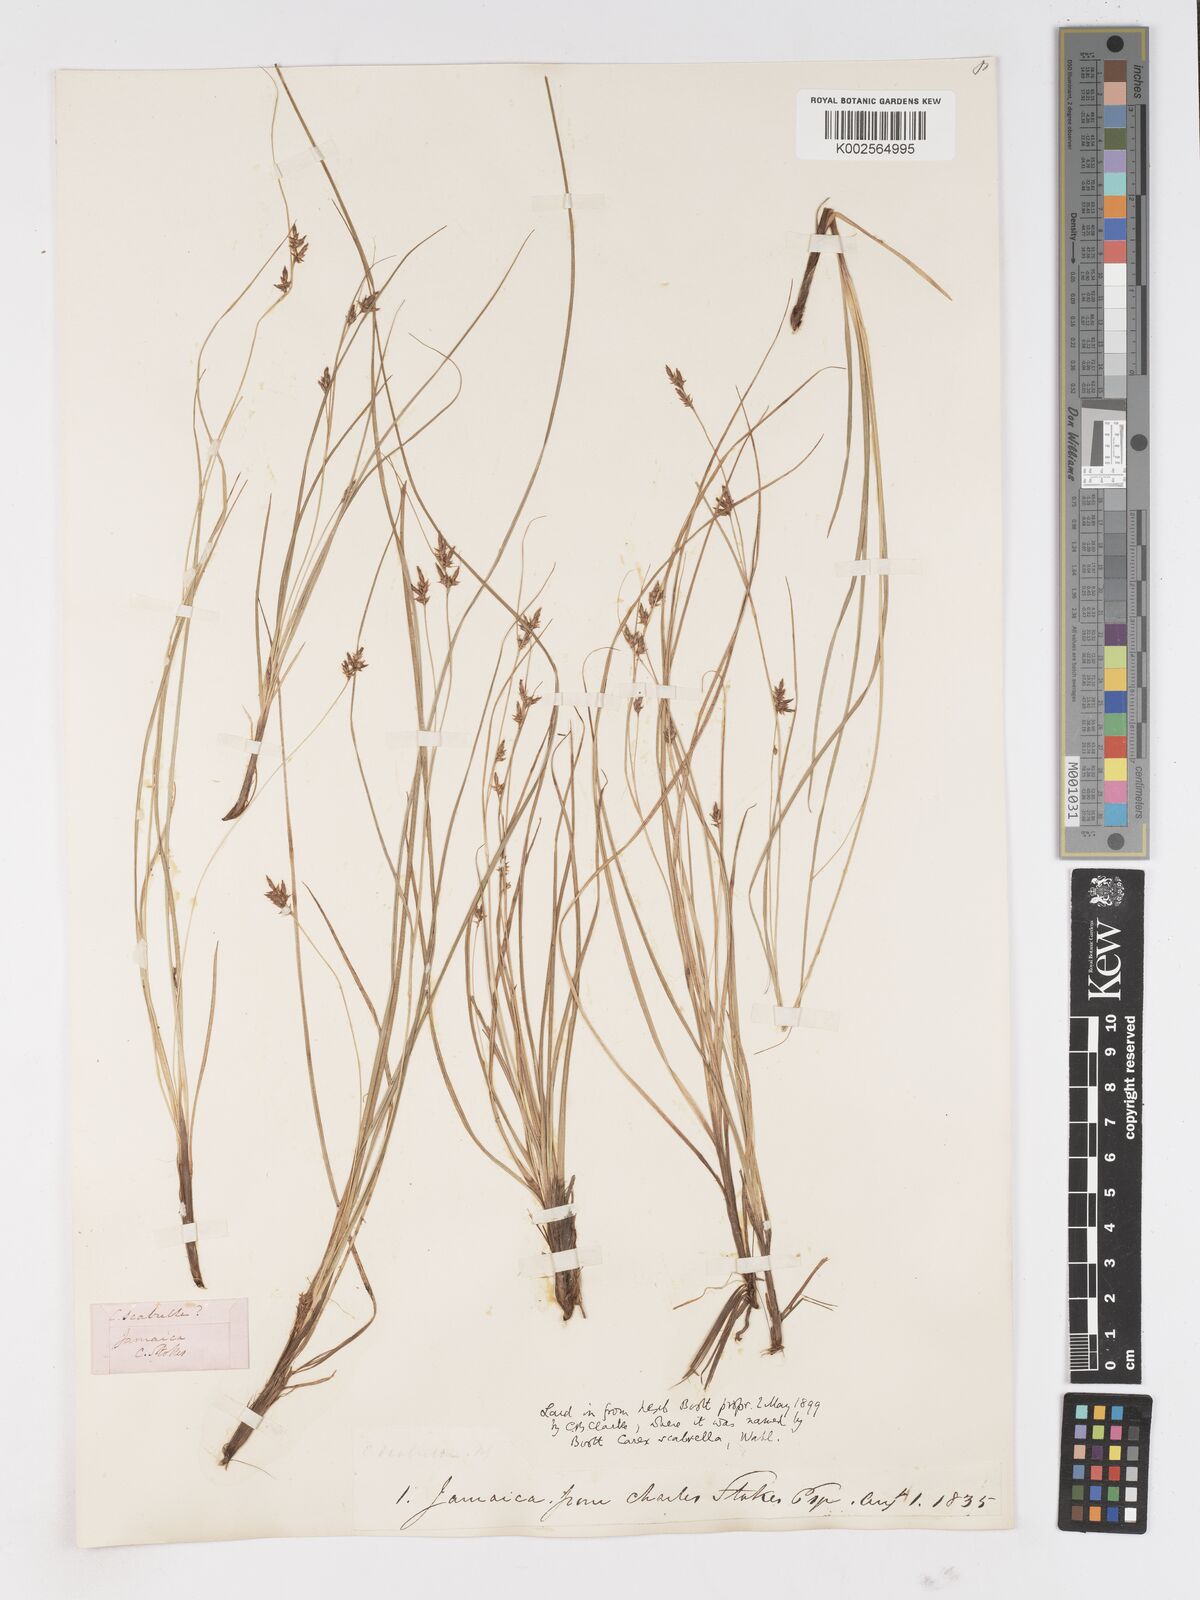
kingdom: Plantae
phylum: Tracheophyta
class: Liliopsida
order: Poales
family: Cyperaceae
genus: Carex
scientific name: Carex
